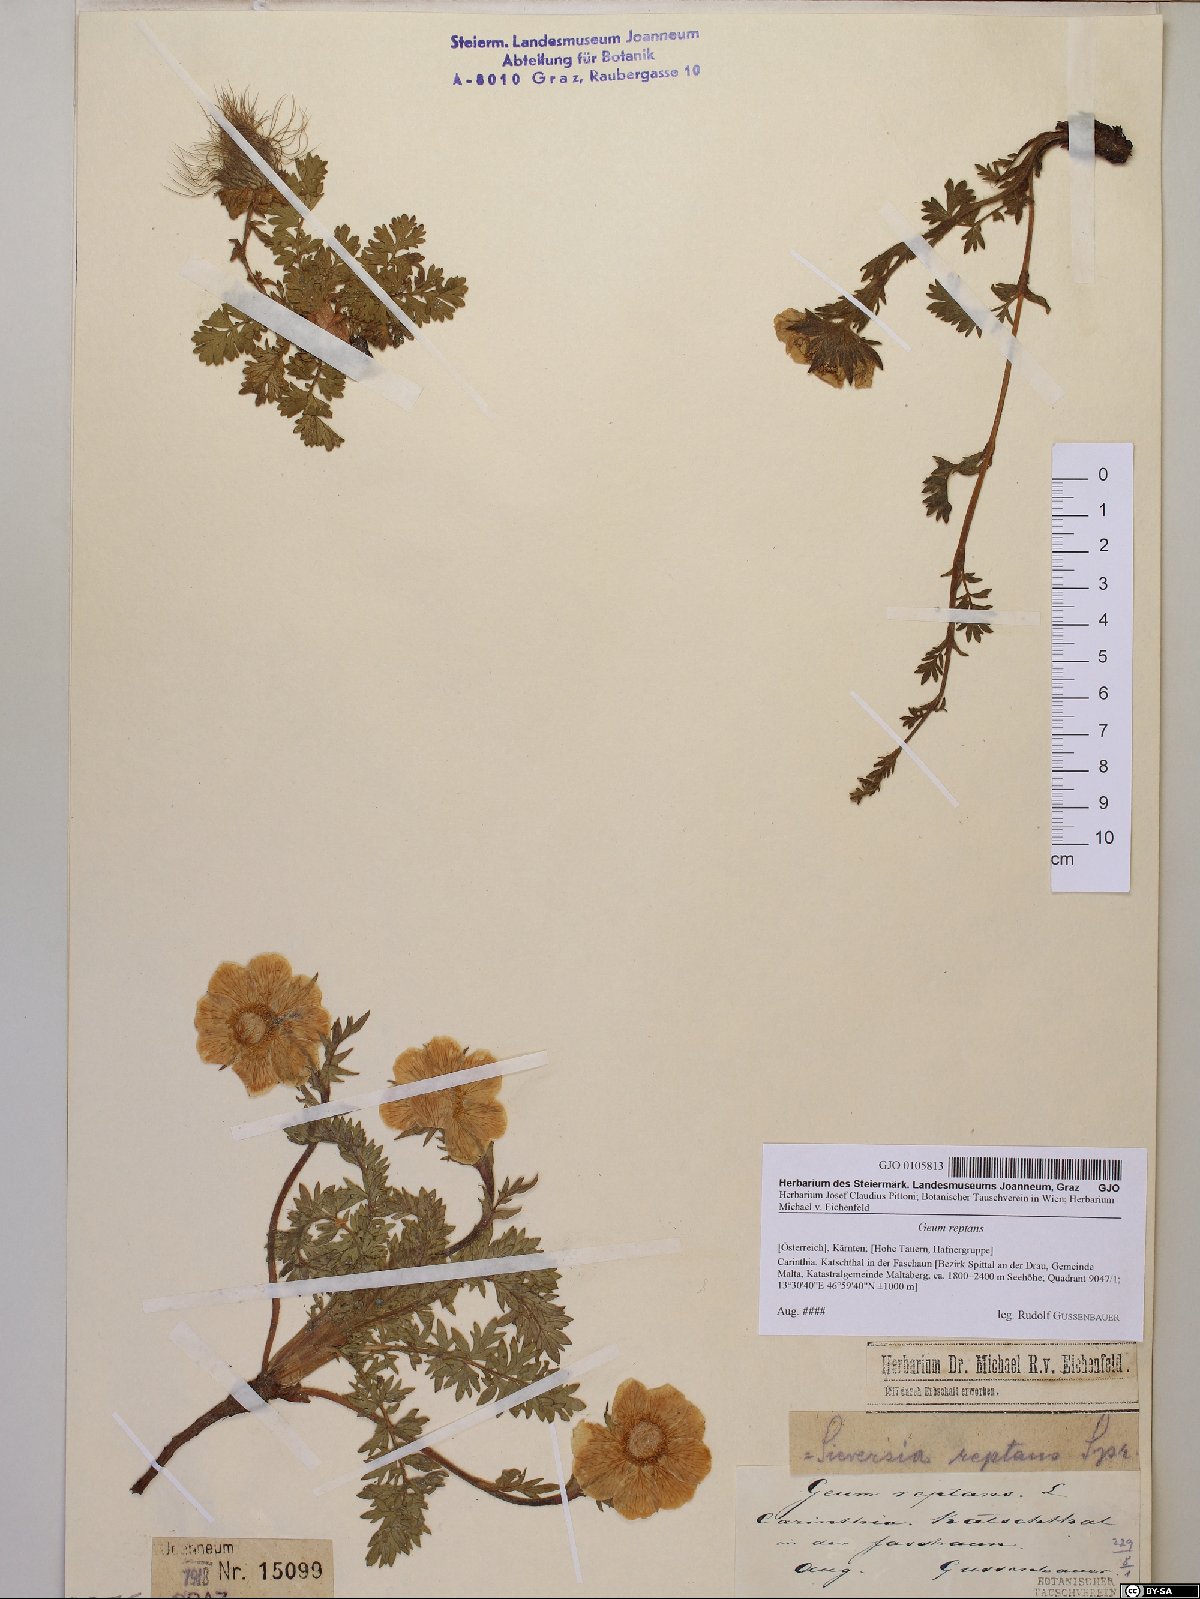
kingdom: Plantae
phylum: Tracheophyta
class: Magnoliopsida
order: Rosales
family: Rosaceae
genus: Geum
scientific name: Geum reptans
